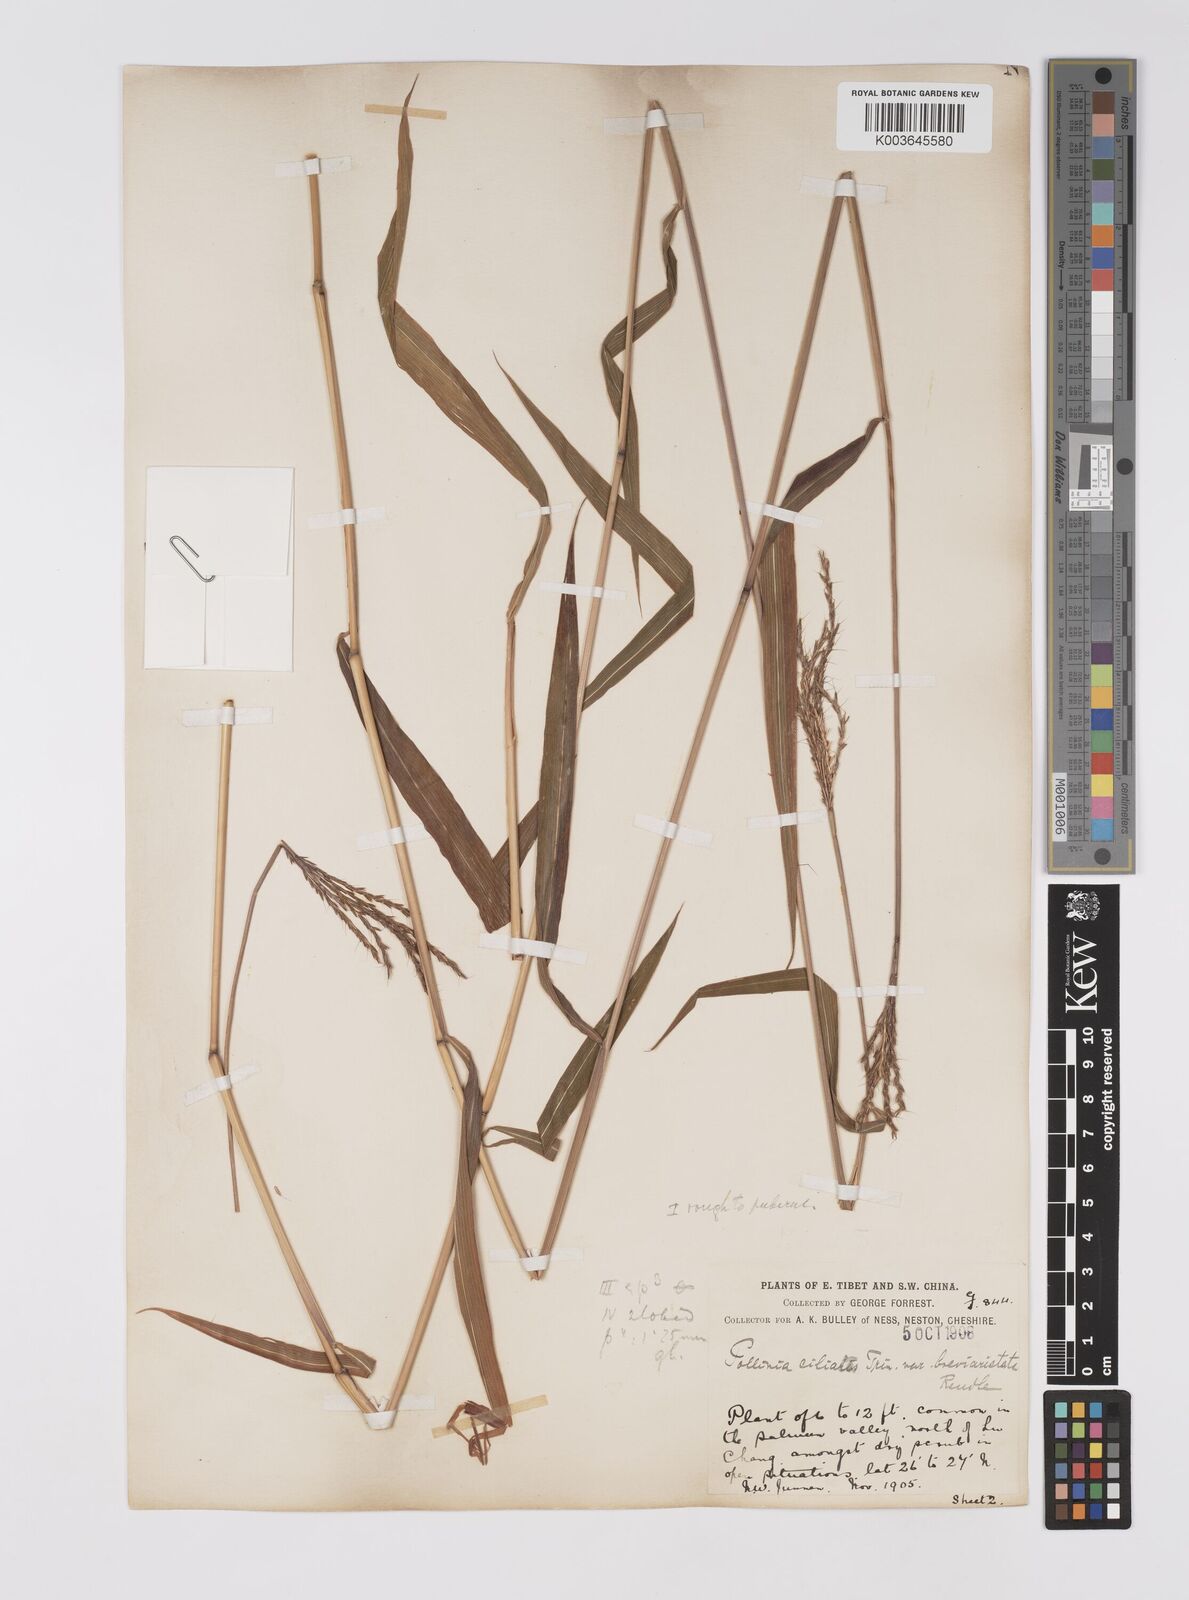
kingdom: Plantae
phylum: Tracheophyta
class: Liliopsida
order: Poales
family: Poaceae
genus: Microstegium
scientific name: Microstegium fasciculatum
